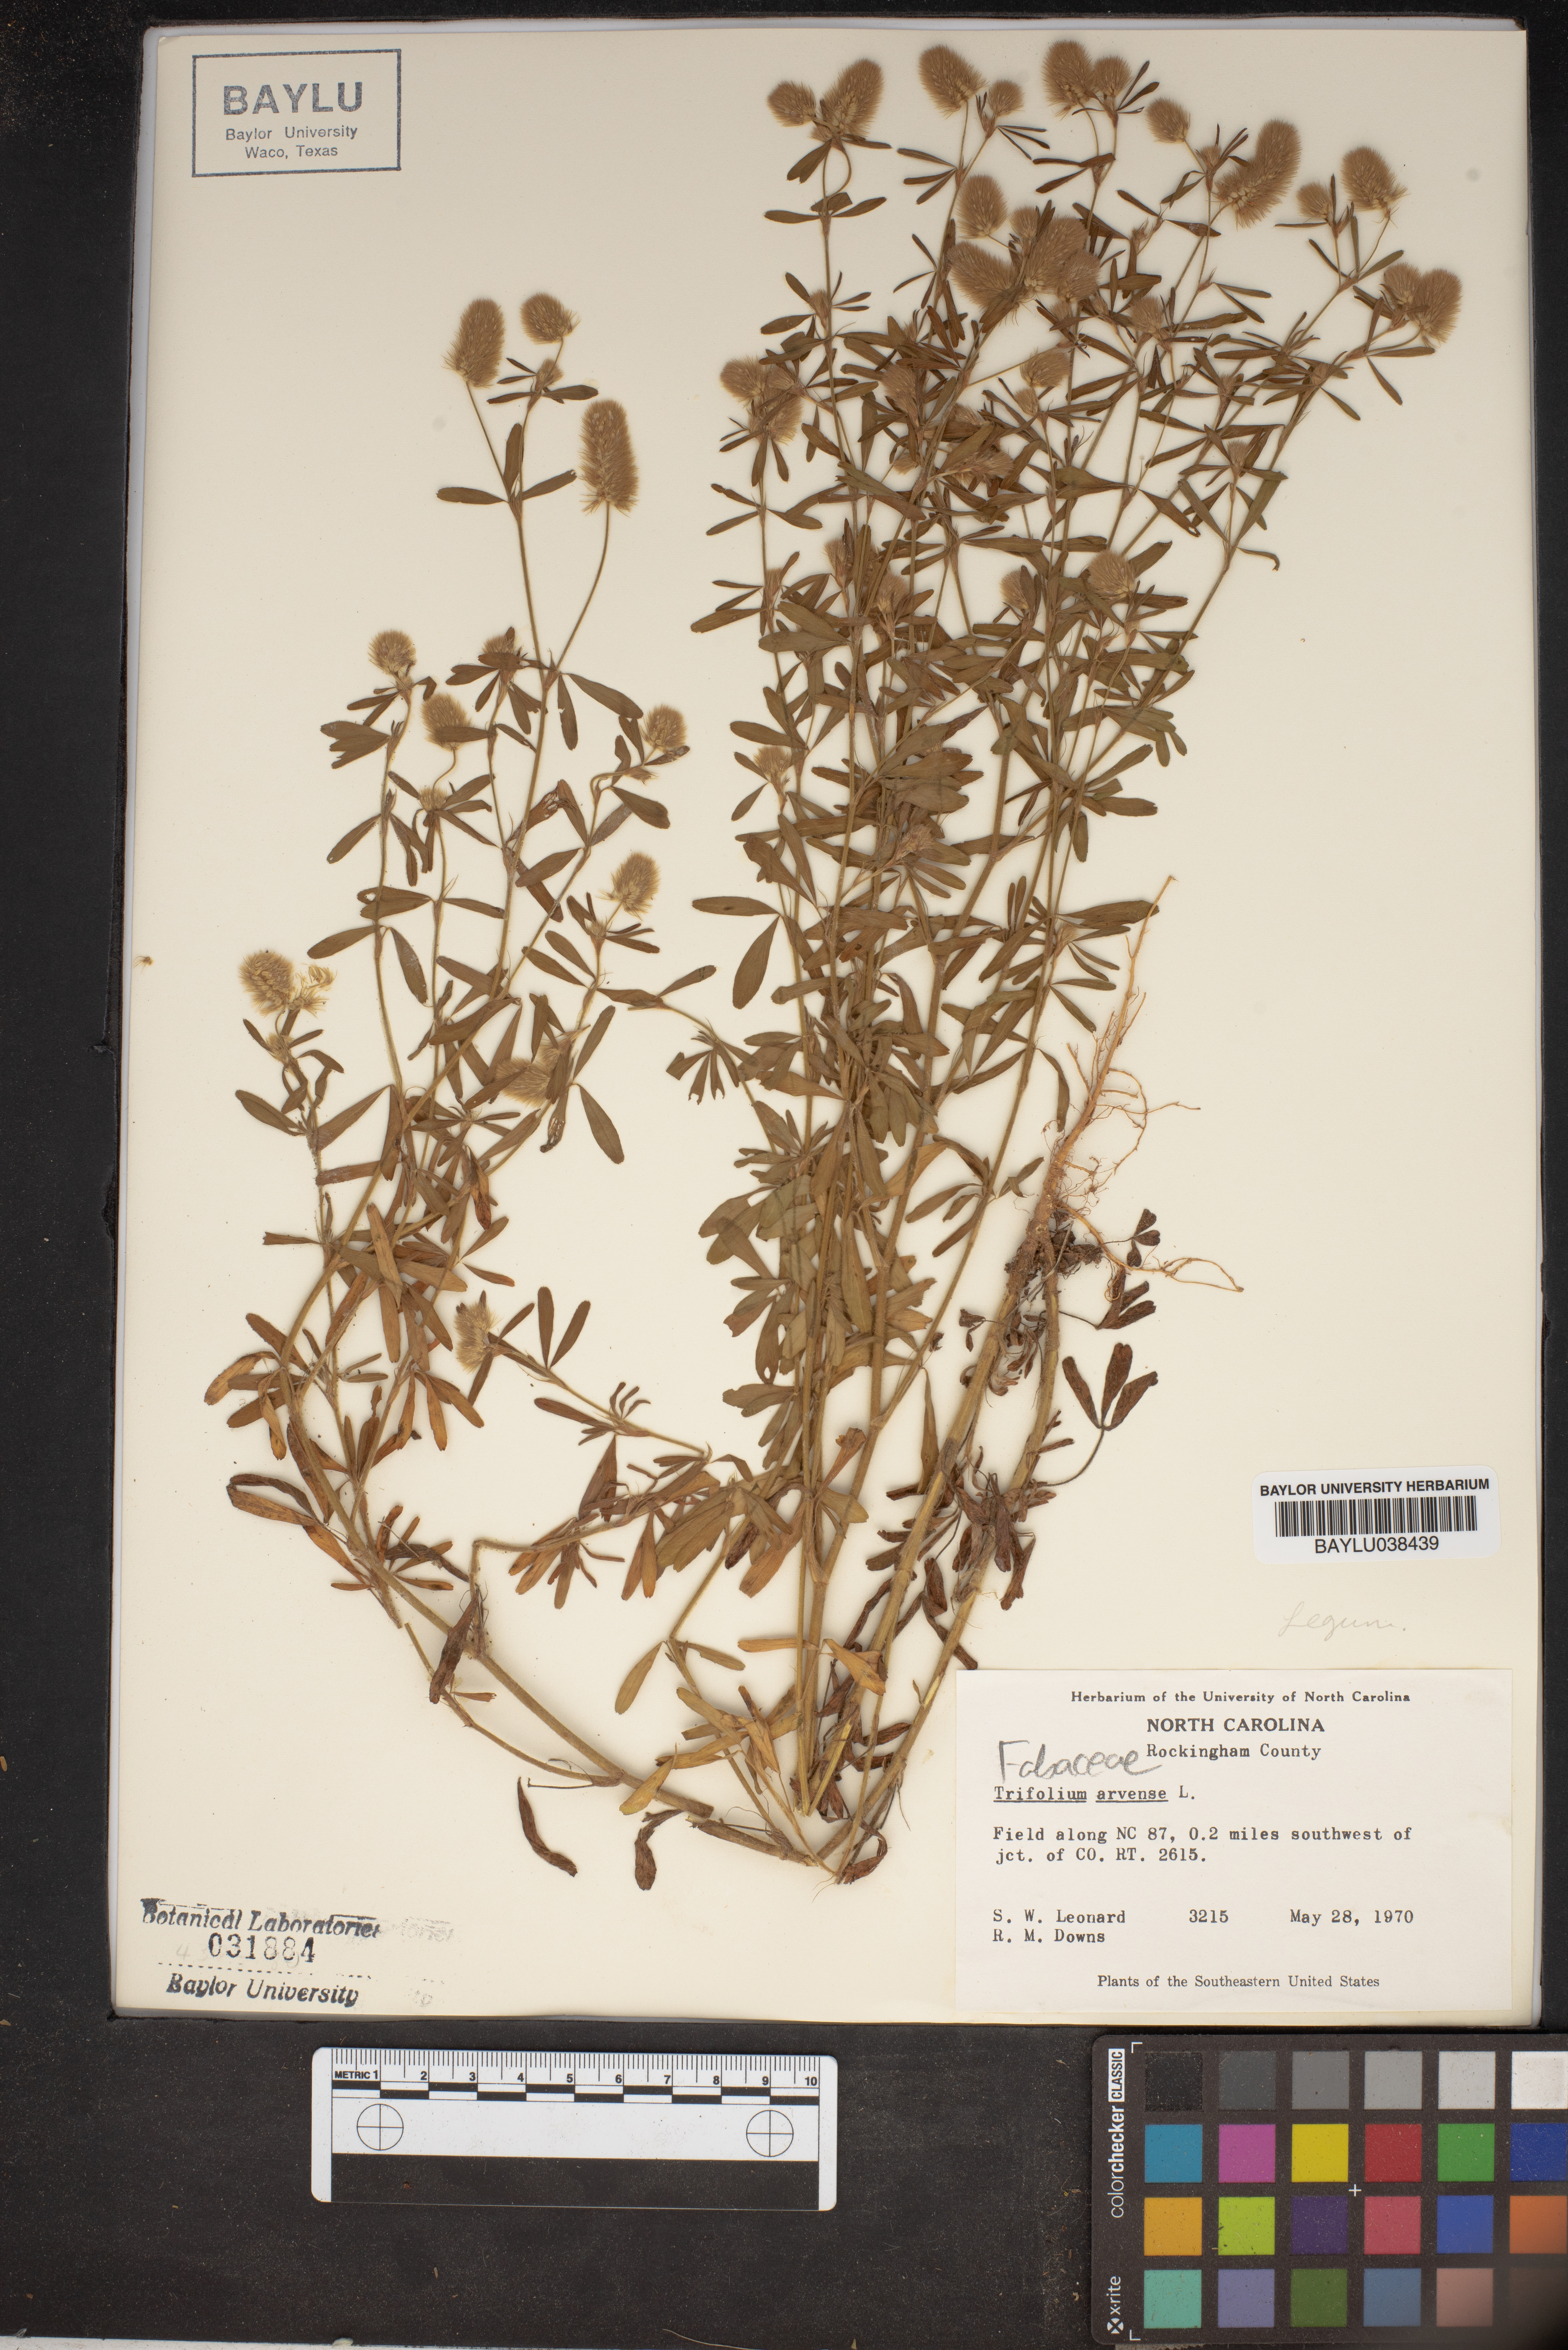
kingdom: Plantae
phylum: Tracheophyta
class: Magnoliopsida
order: Fabales
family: Fabaceae
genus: Trifolium
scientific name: Trifolium arvense
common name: Hare's-foot clover
